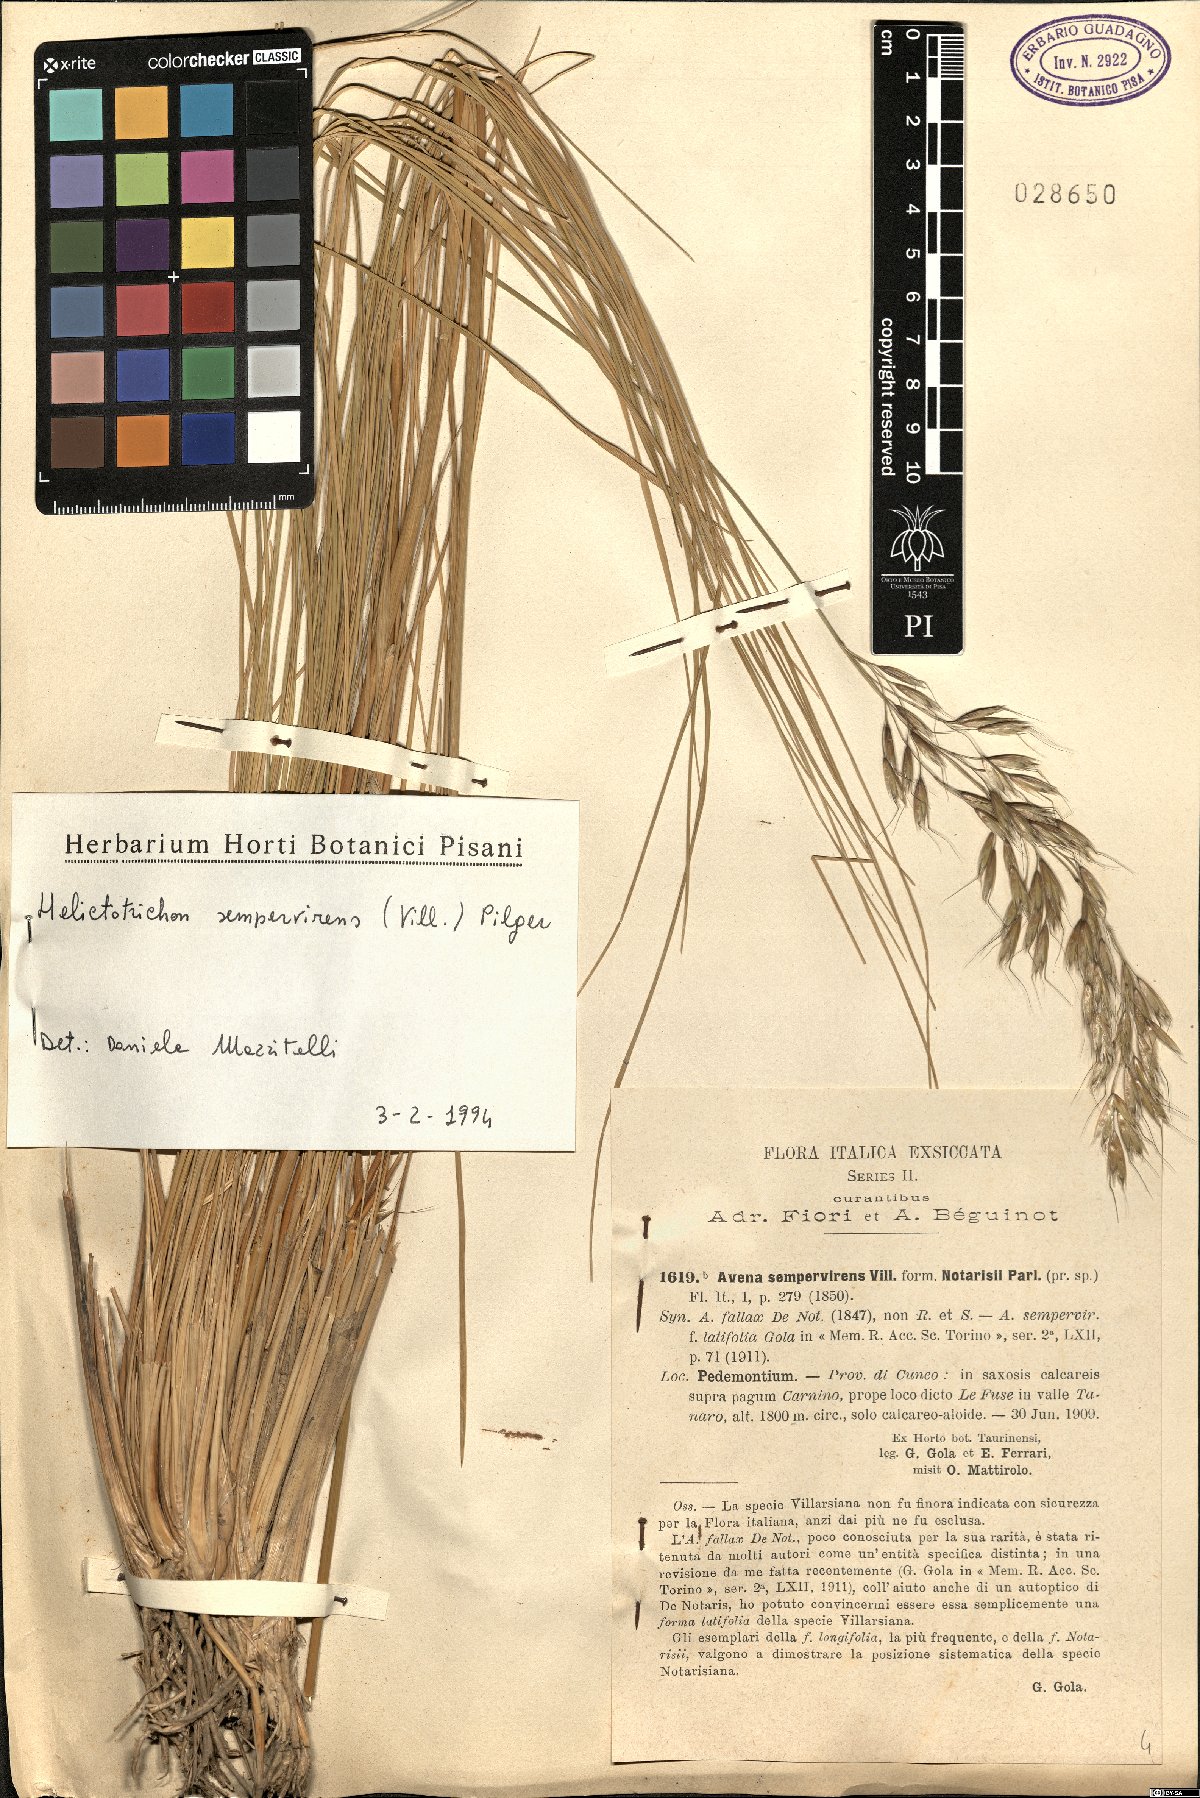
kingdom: Plantae
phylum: Tracheophyta
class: Liliopsida
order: Poales
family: Poaceae
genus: Helictotrichon
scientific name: Helictotrichon sempervirens
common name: Blue oat-grass
